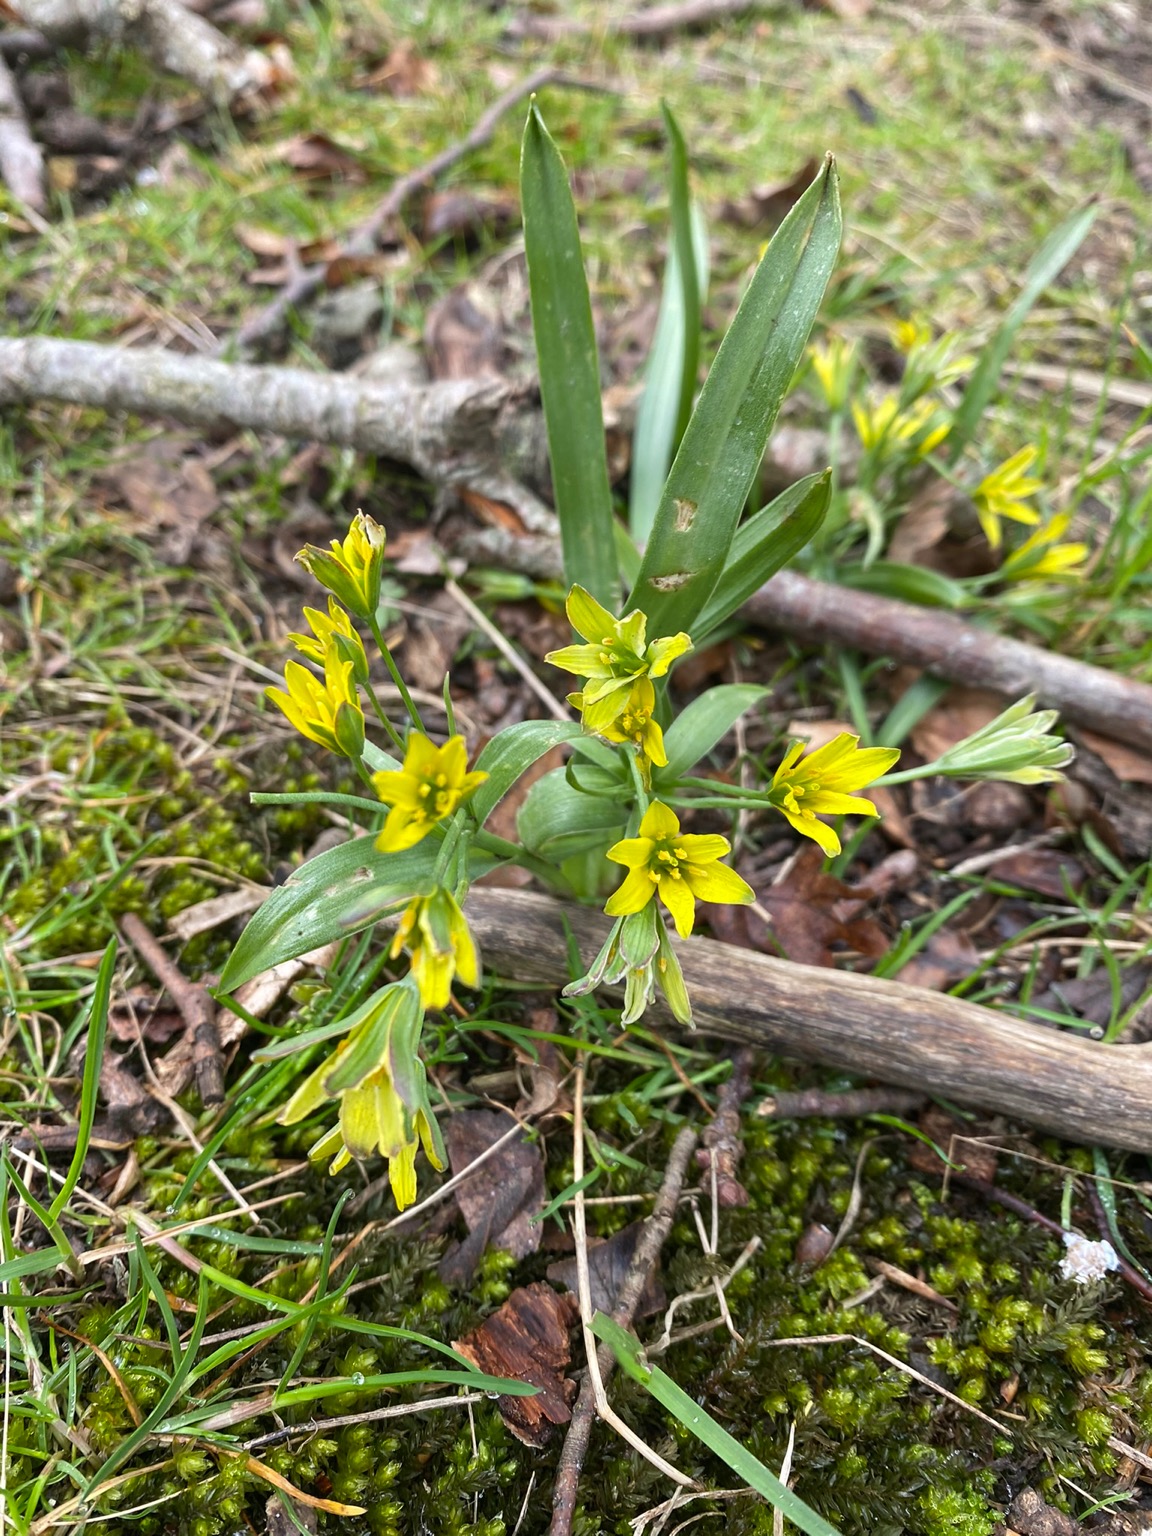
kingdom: Plantae
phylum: Tracheophyta
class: Liliopsida
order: Liliales
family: Liliaceae
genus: Gagea
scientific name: Gagea lutea
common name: Almindelig guldstjerne
